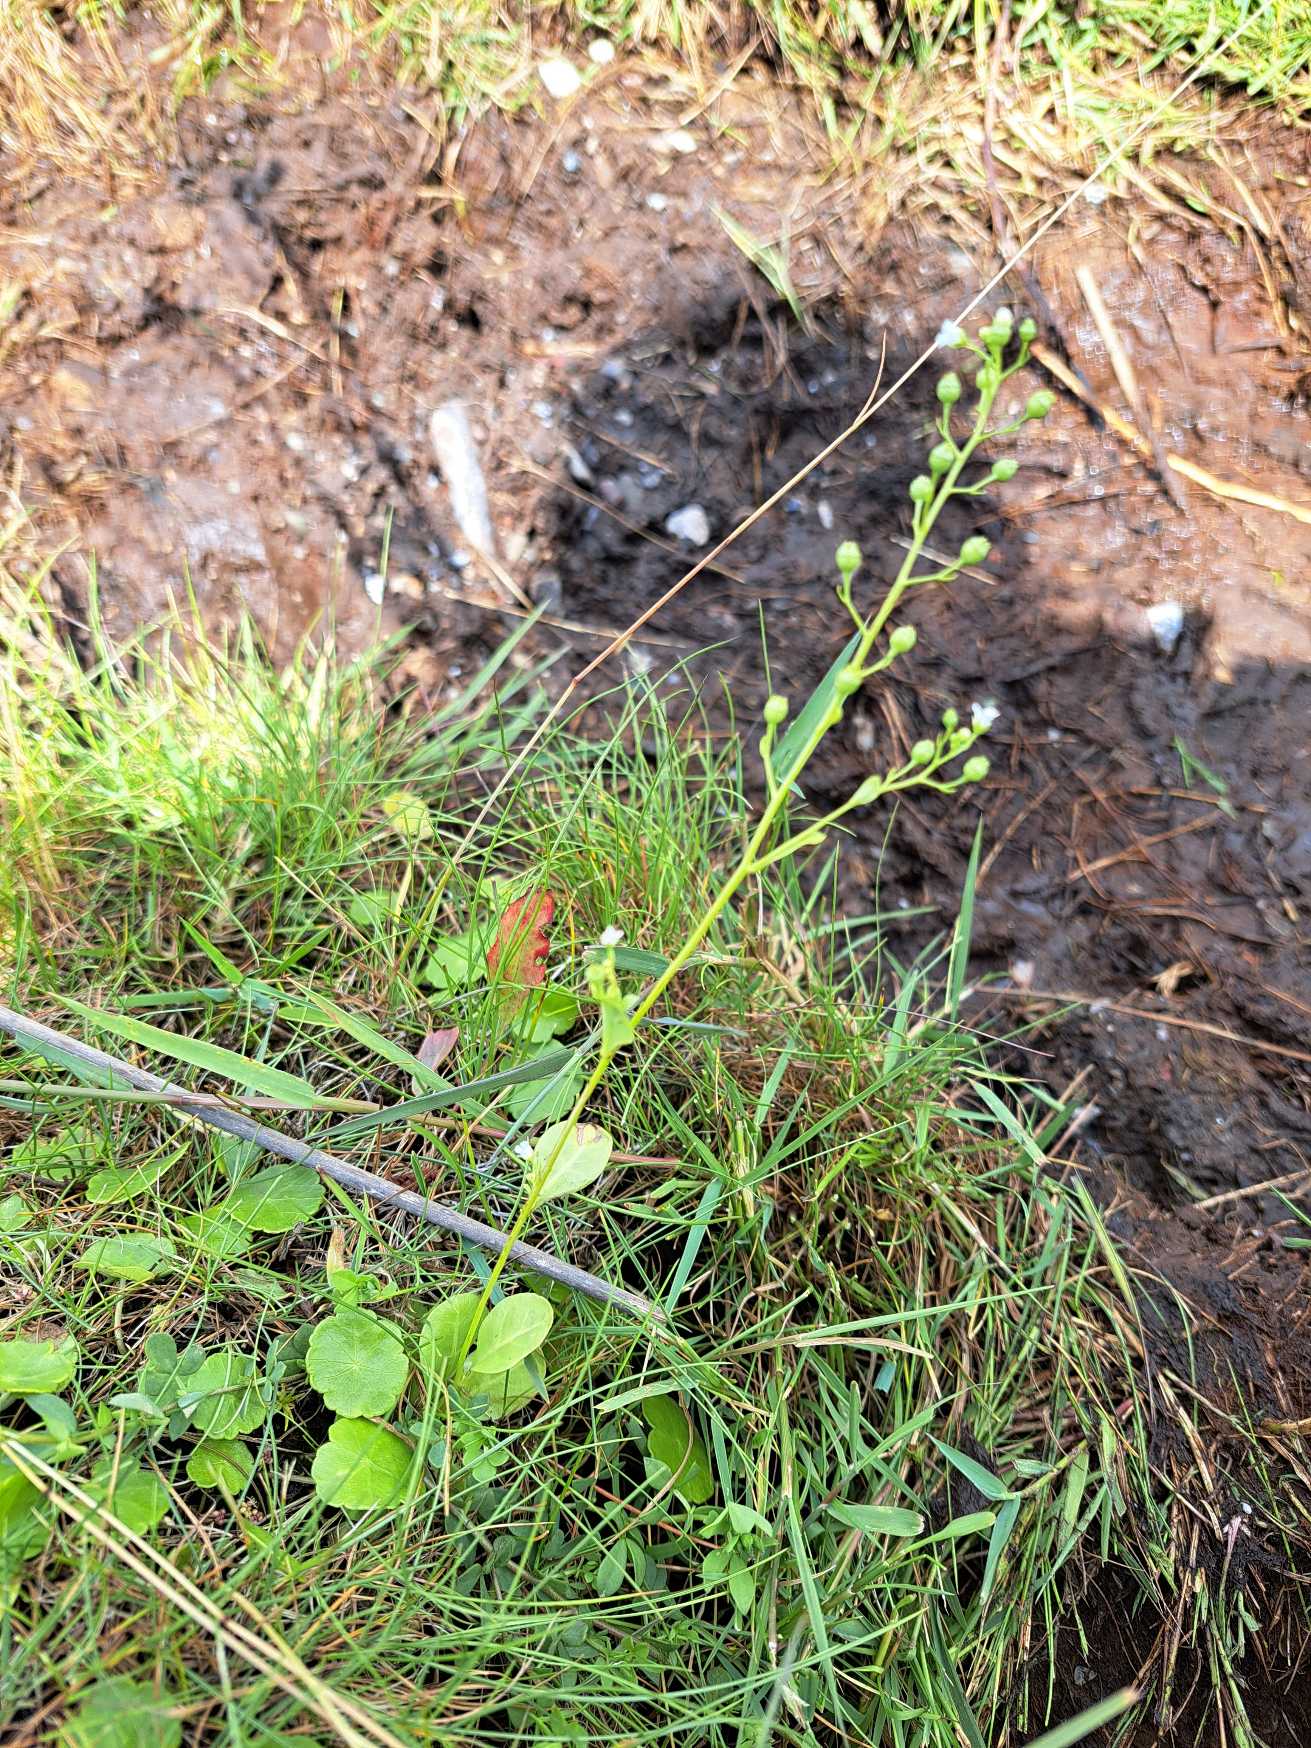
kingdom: Plantae
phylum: Tracheophyta
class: Magnoliopsida
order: Ericales
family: Primulaceae
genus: Samolus
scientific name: Samolus valerandi
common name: Samel
